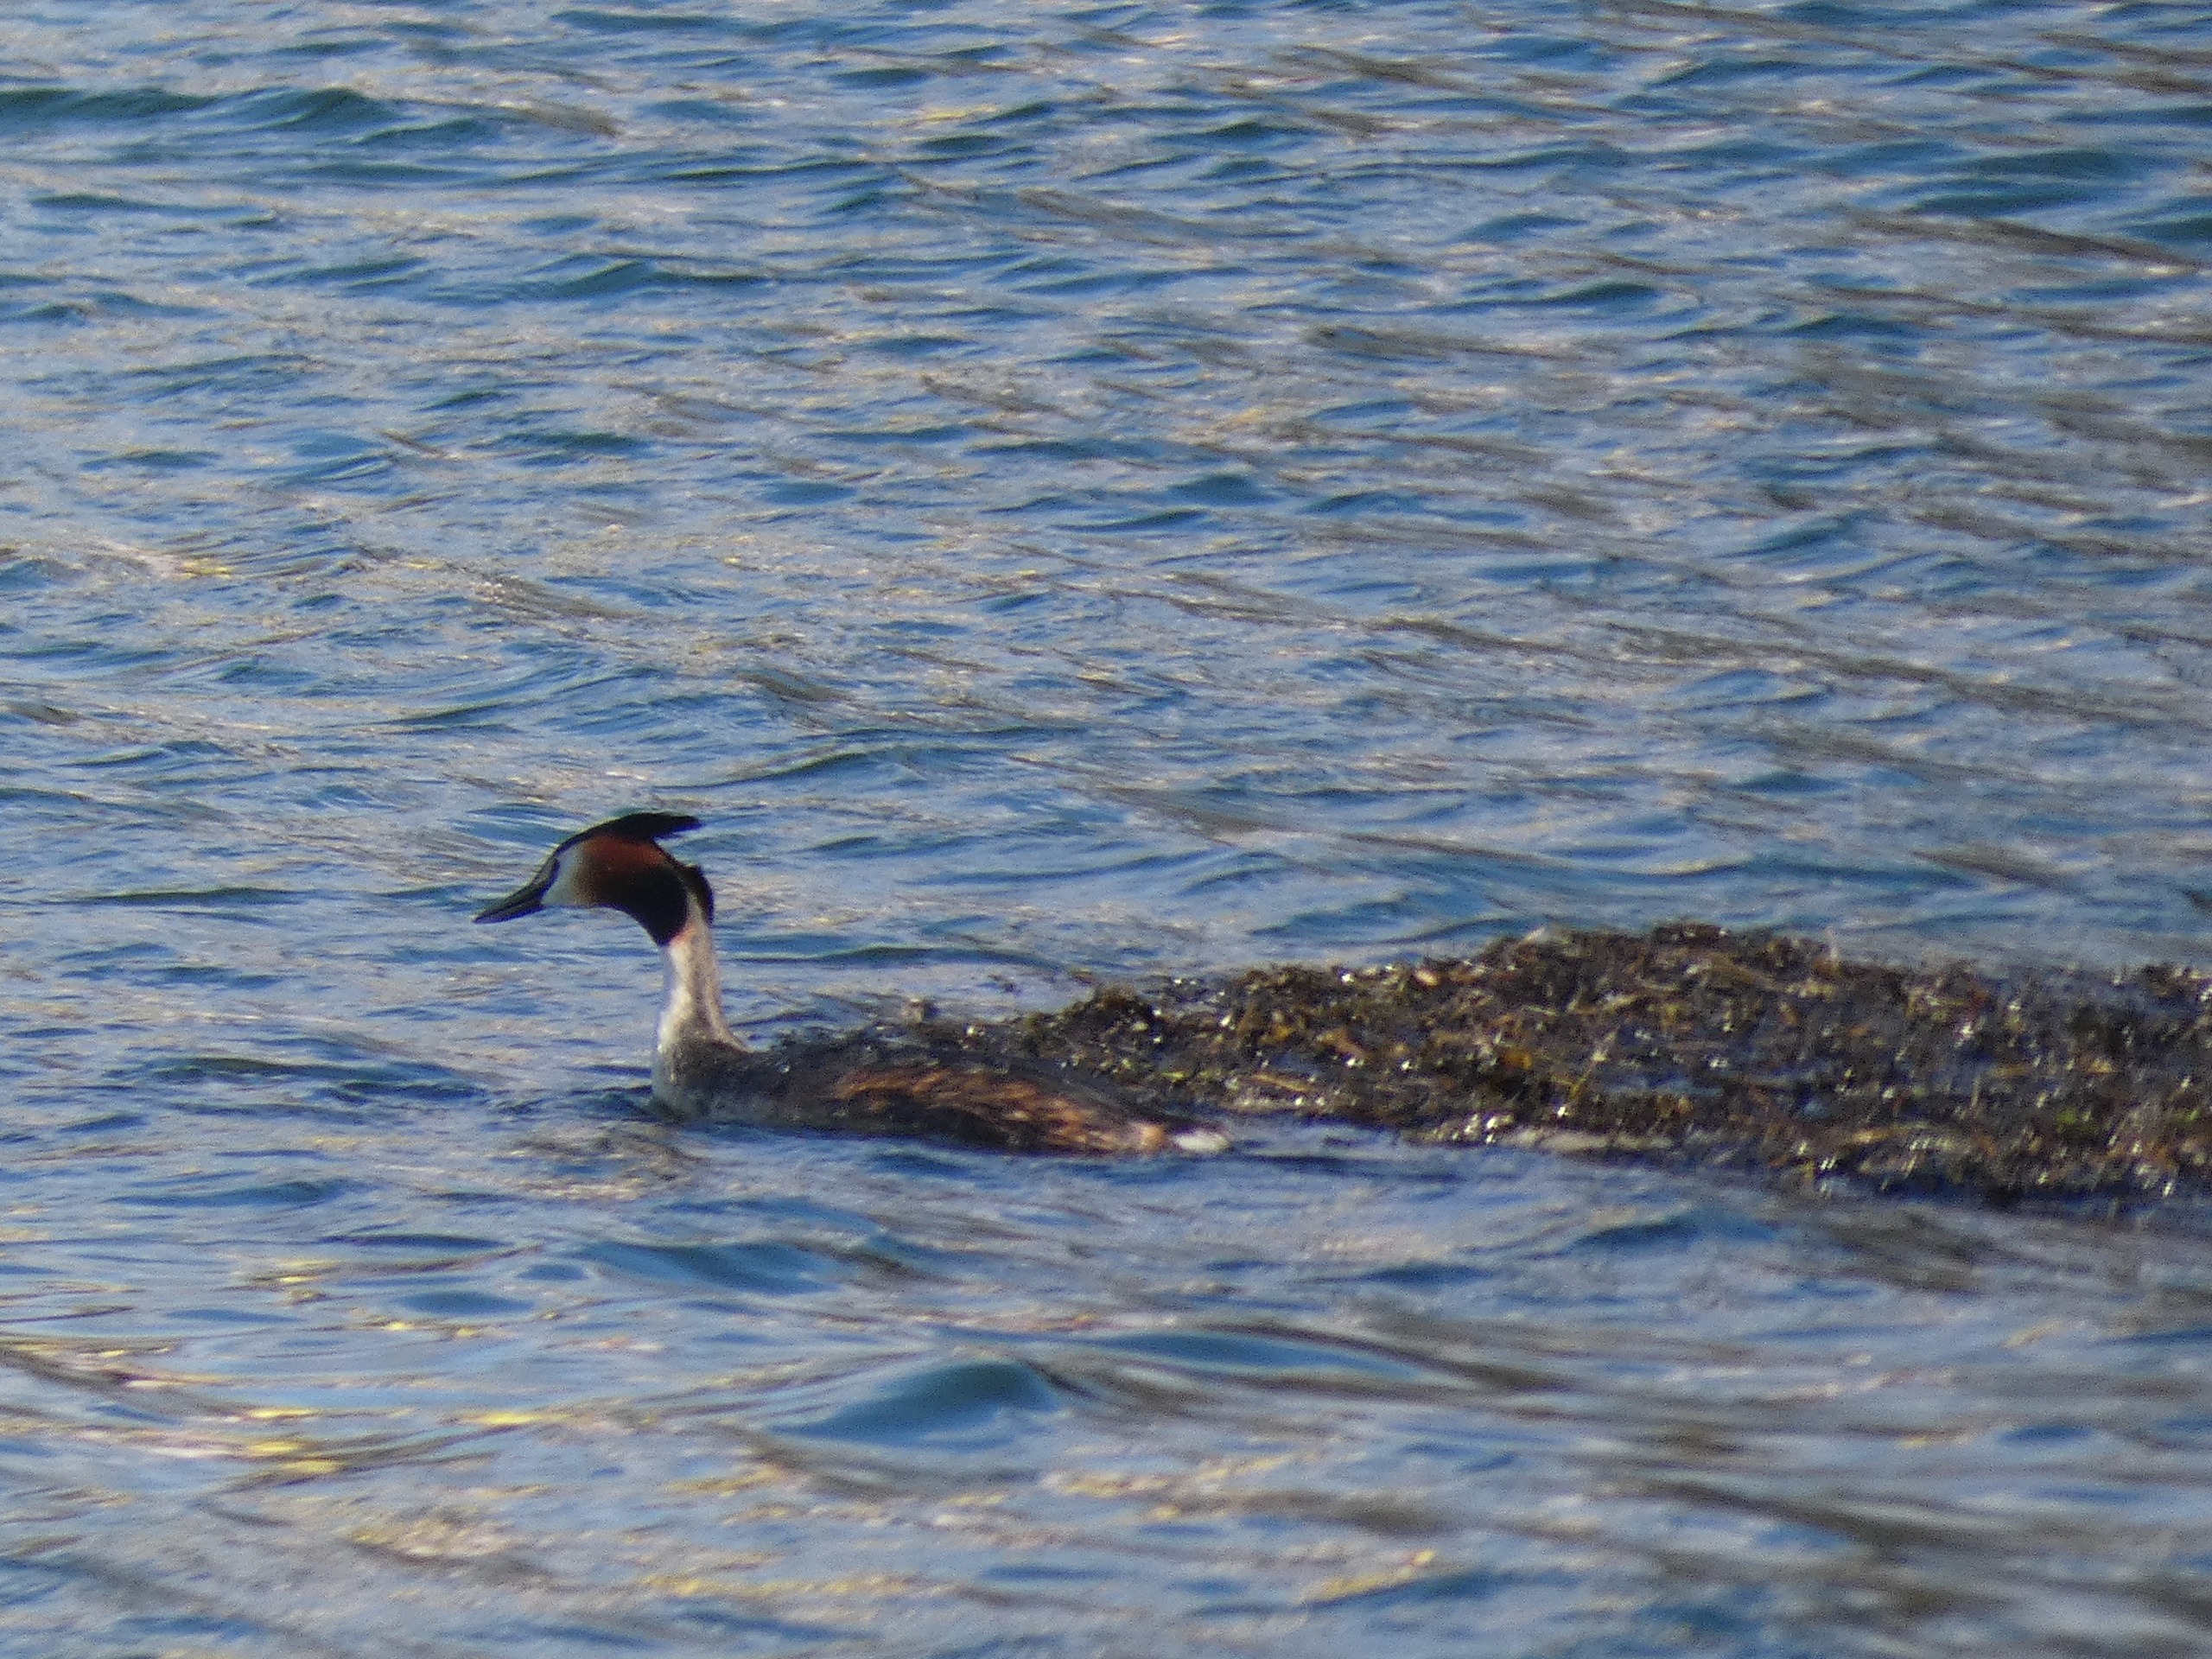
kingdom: Animalia
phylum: Chordata
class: Aves
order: Podicipediformes
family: Podicipedidae
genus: Podiceps
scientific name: Podiceps cristatus
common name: Toppet lappedykker
